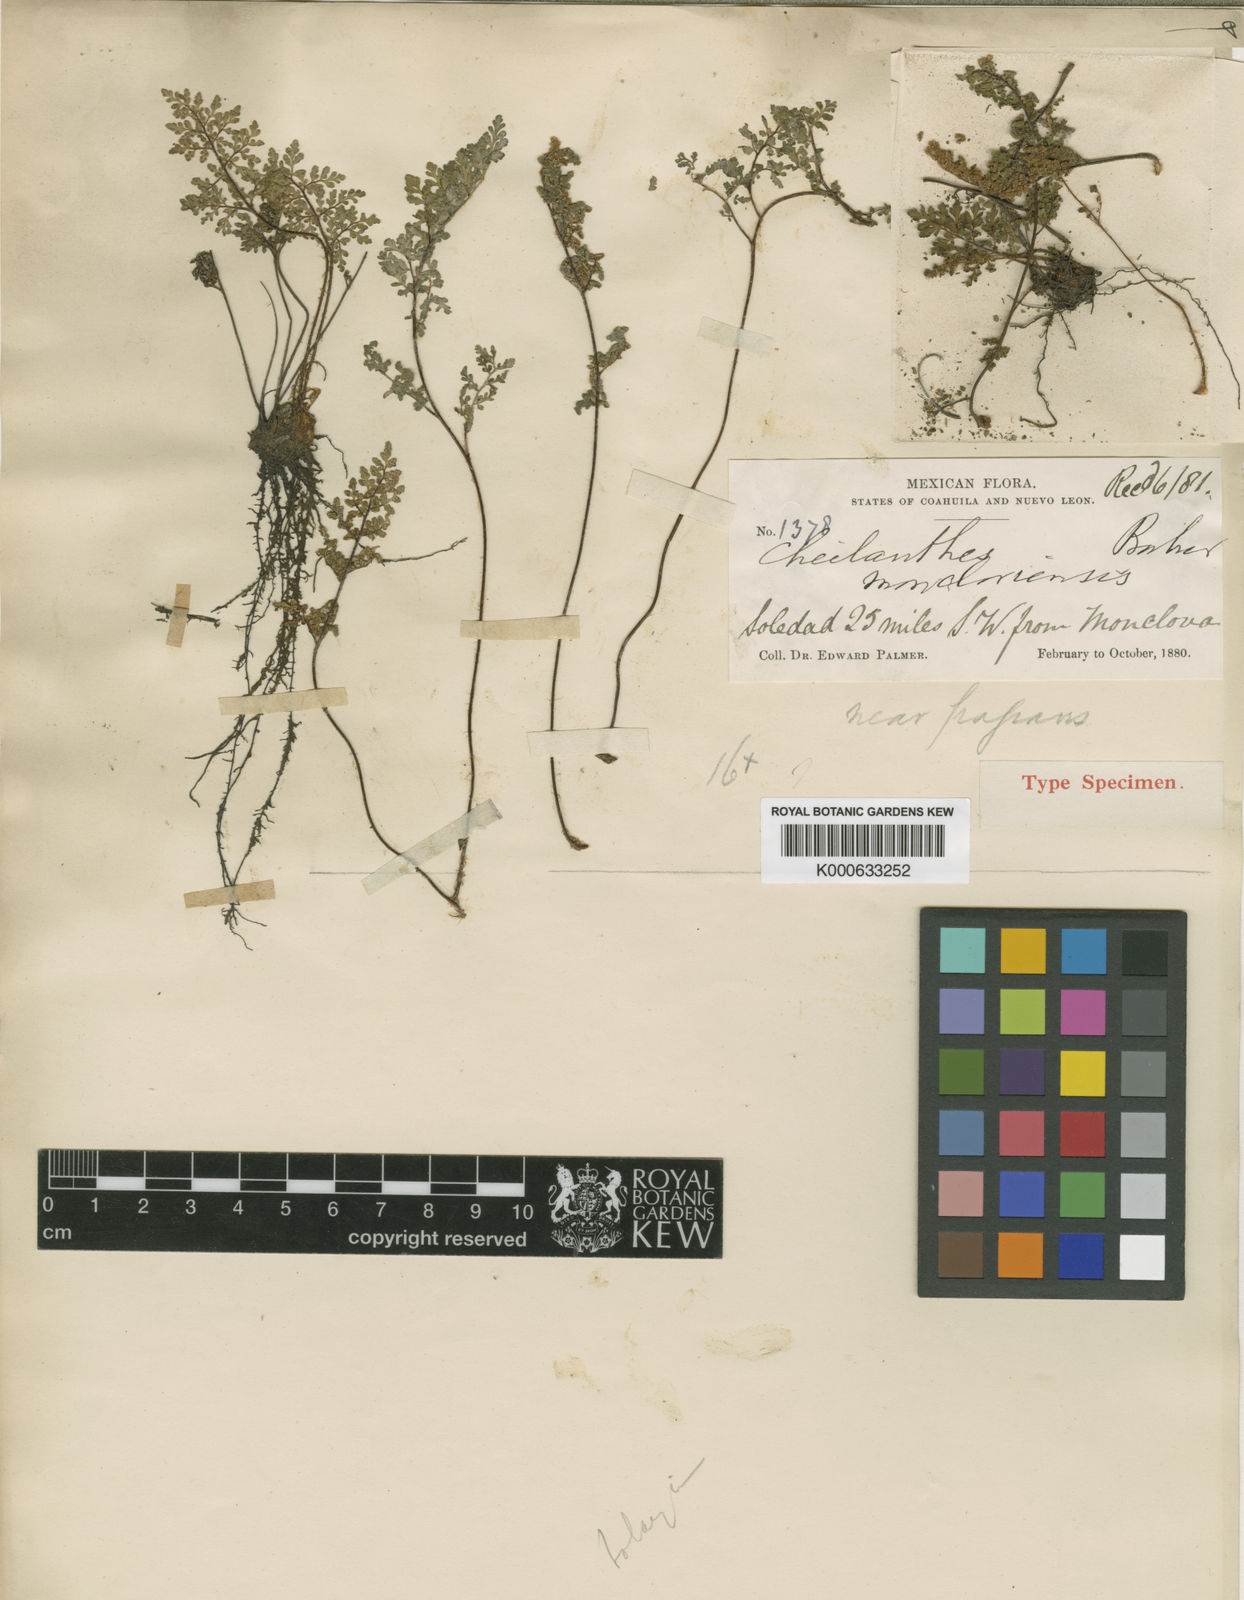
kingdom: Plantae
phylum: Tracheophyta
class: Polypodiopsida
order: Polypodiales
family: Pteridaceae
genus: Myriopteris
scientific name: Myriopteris pringlei
